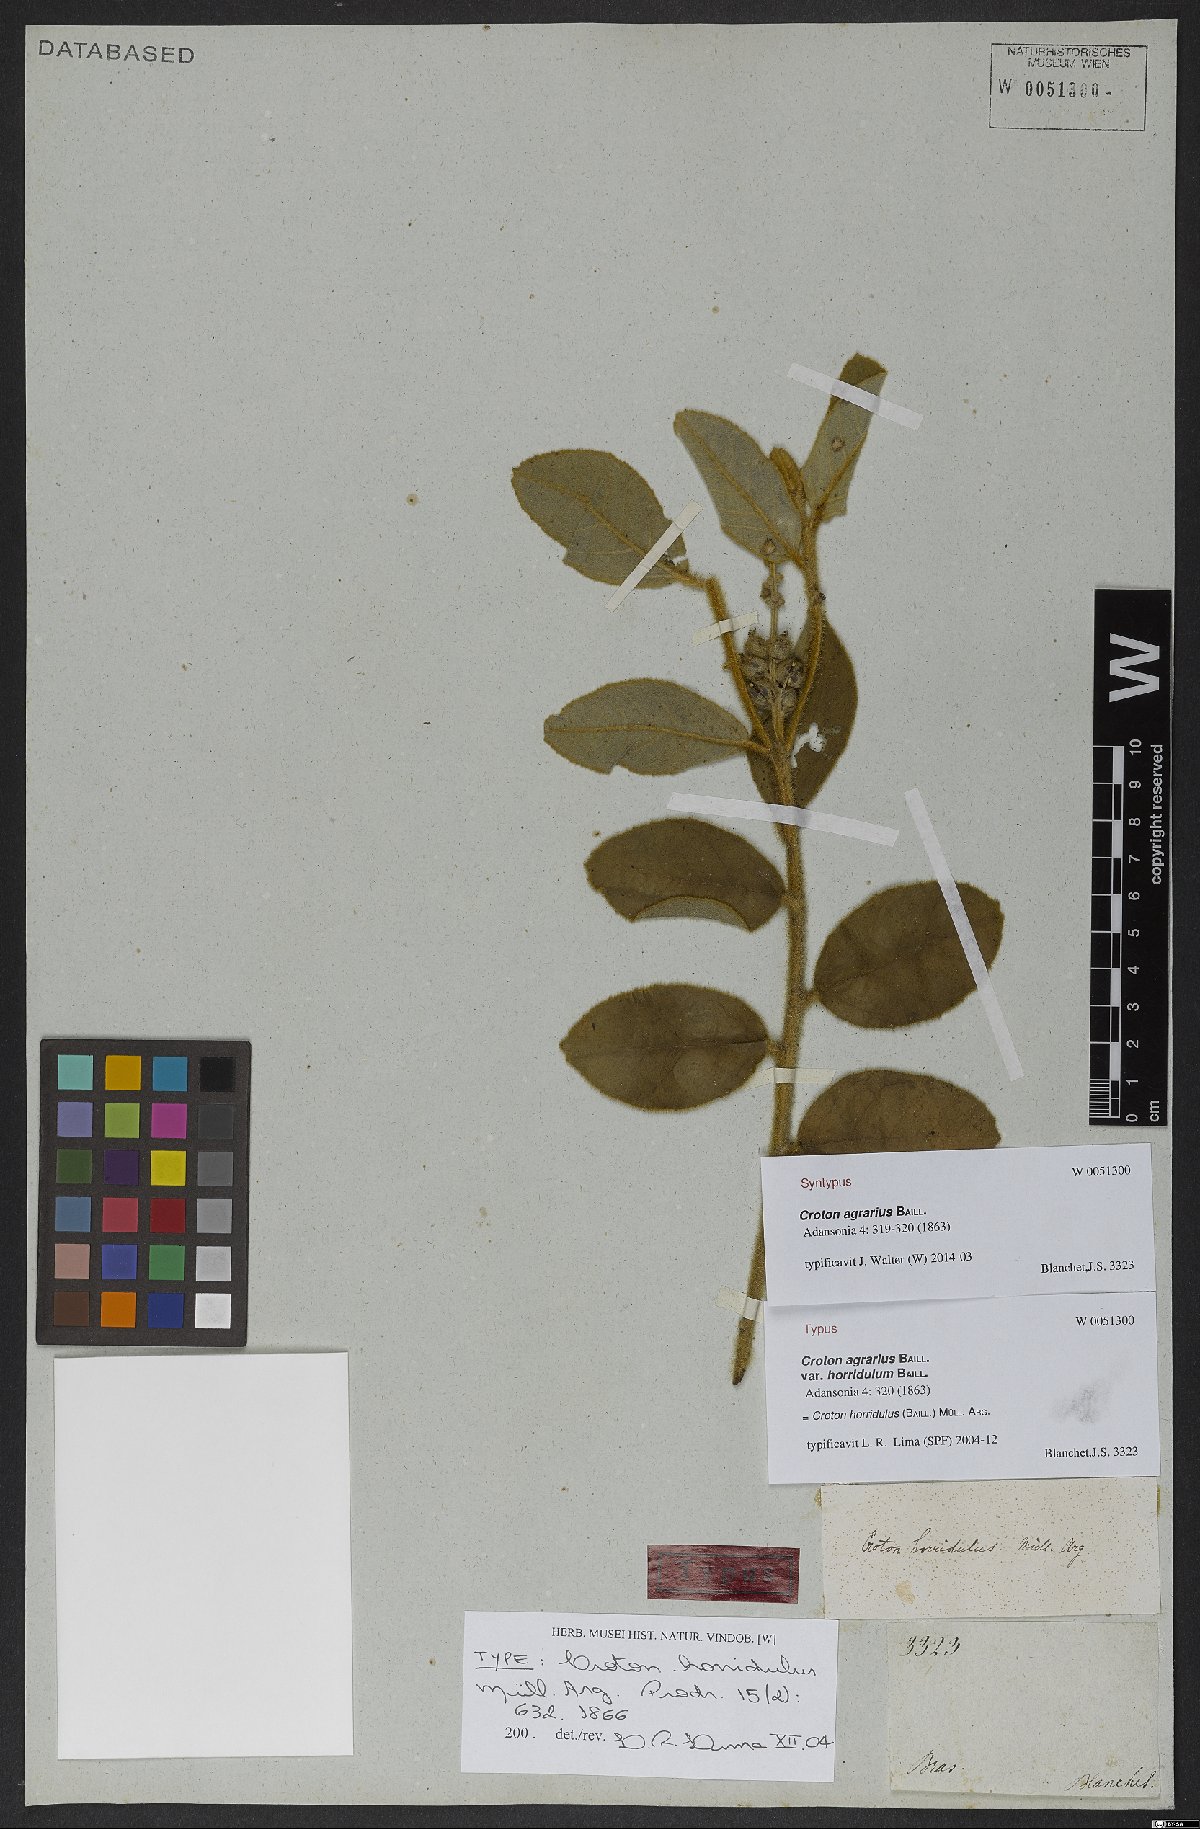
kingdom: Plantae
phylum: Tracheophyta
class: Magnoliopsida
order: Malpighiales
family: Euphorbiaceae
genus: Croton
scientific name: Croton fulvus
